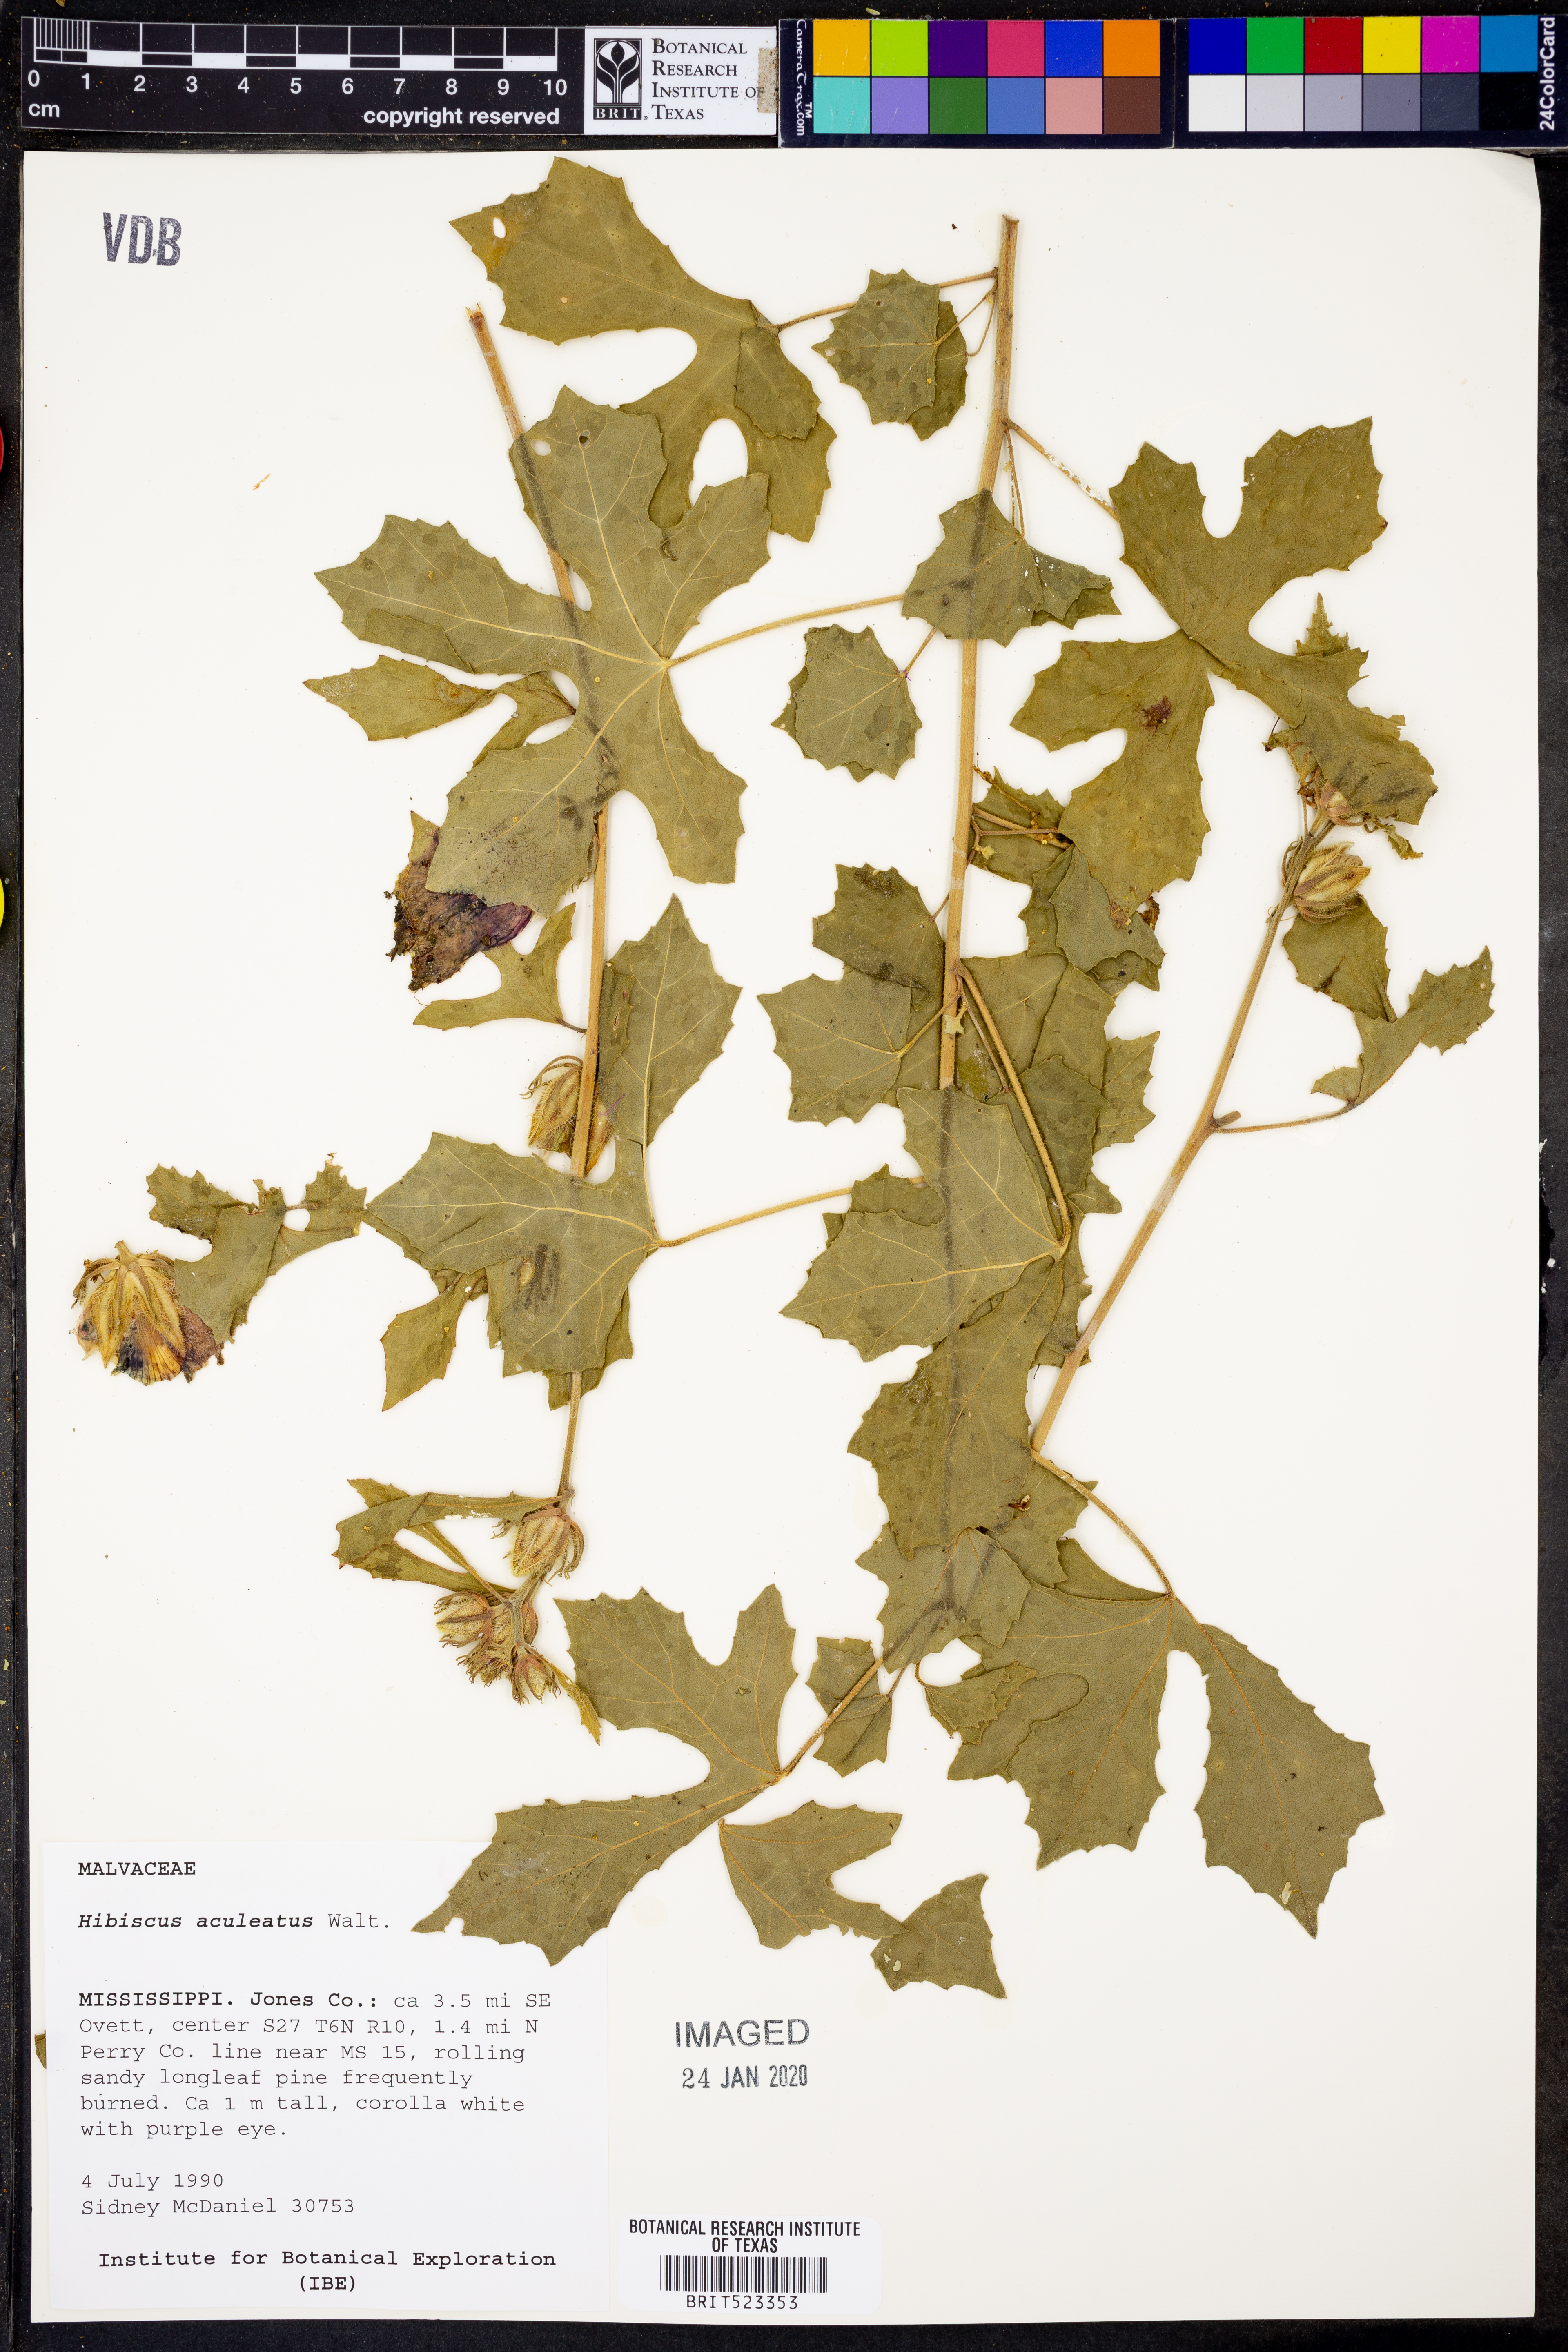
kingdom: Plantae
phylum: Tracheophyta
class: Magnoliopsida
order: Malvales
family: Malvaceae
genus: Hibiscus
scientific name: Hibiscus aculeatus
